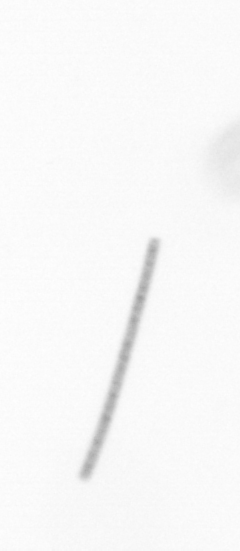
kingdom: Chromista
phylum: Ochrophyta
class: Bacillariophyceae
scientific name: Bacillariophyceae
